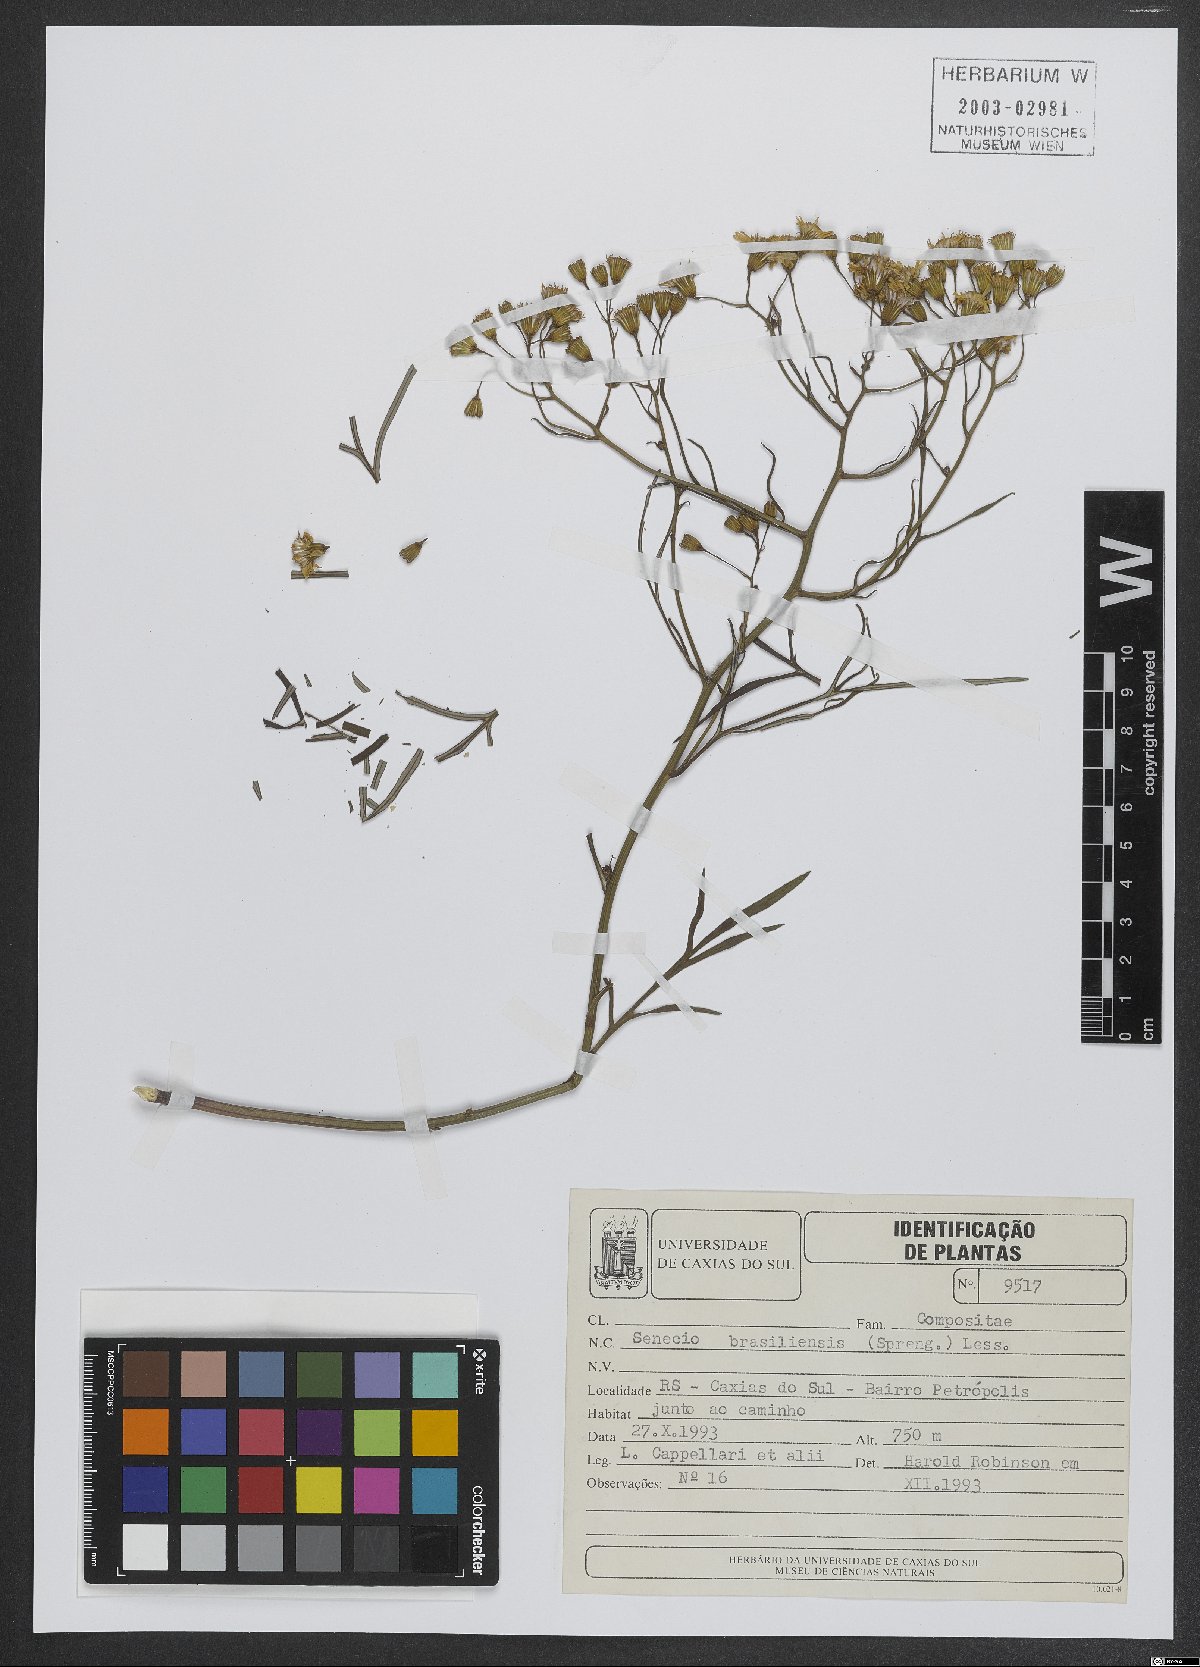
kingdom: Plantae
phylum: Tracheophyta
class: Magnoliopsida
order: Asterales
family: Asteraceae
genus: Senecio
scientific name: Senecio brasiliensis
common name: Hemp-leaf ragwort
